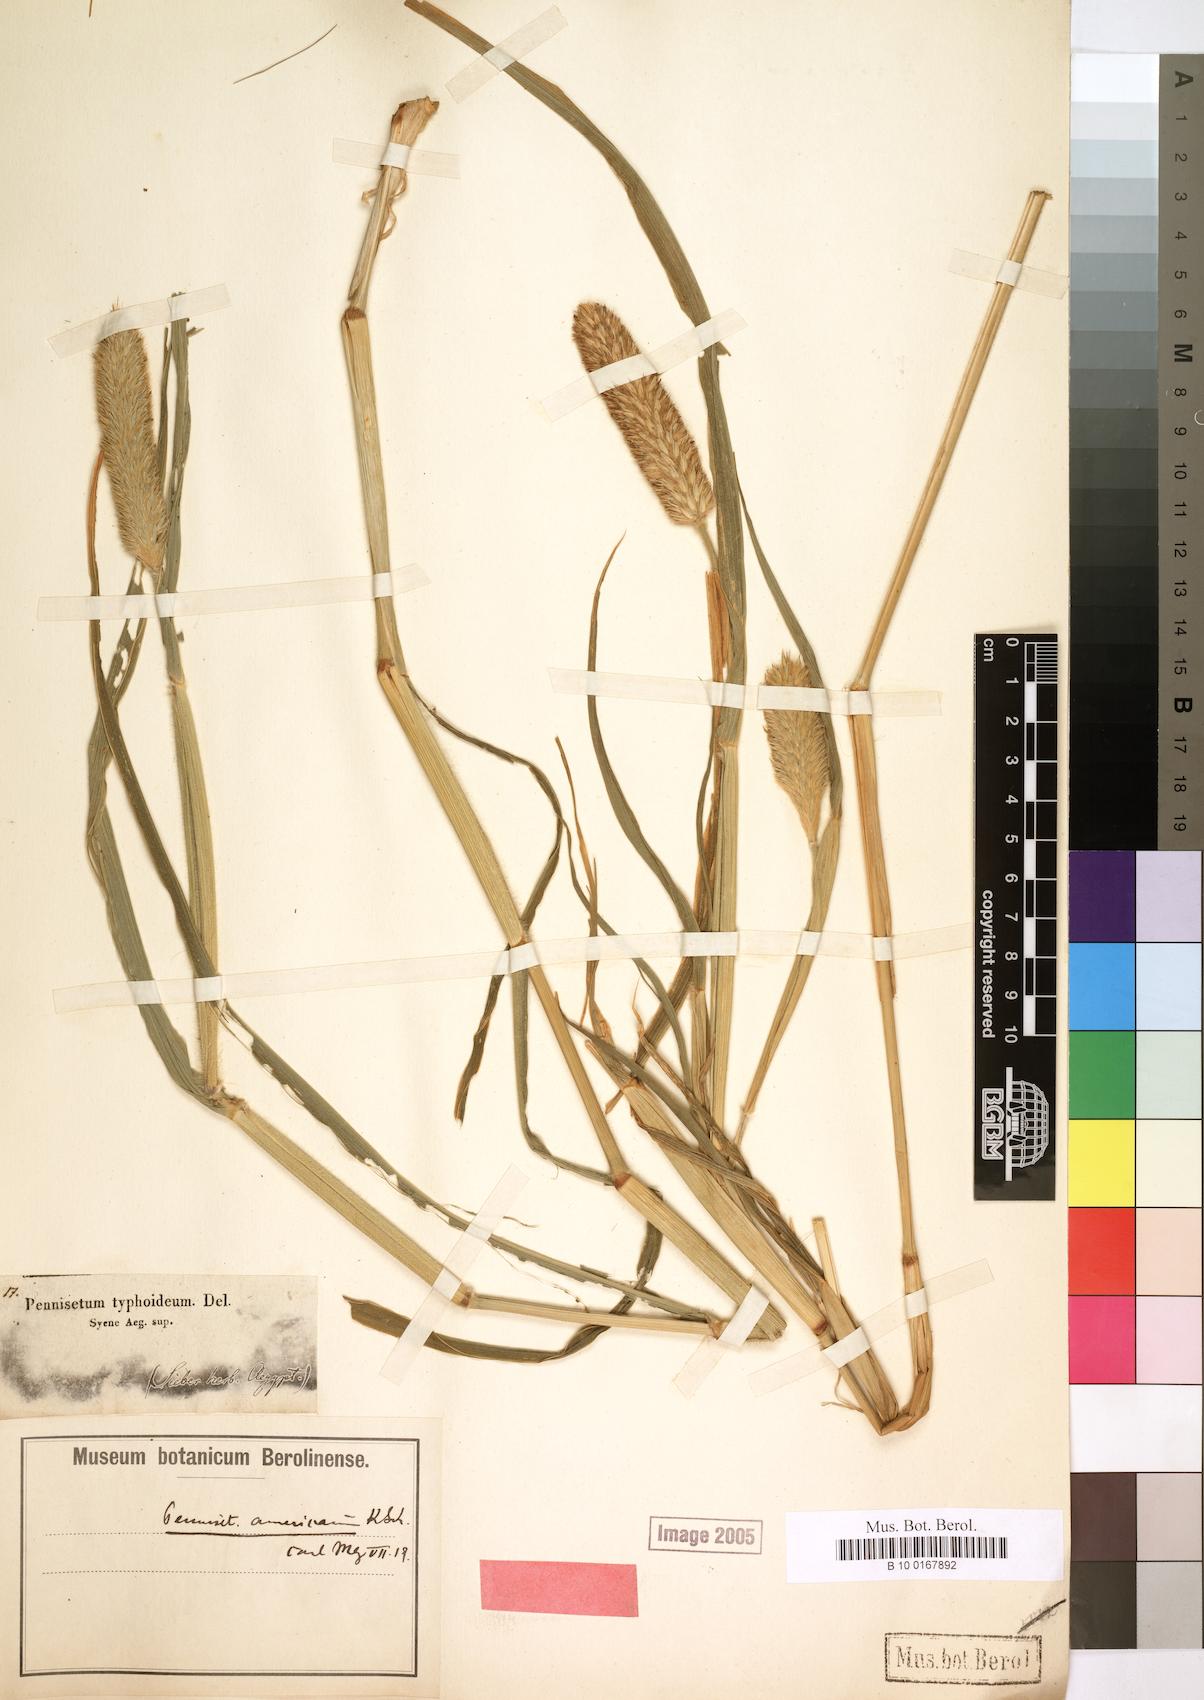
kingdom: Plantae
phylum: Tracheophyta
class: Liliopsida
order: Poales
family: Poaceae
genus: Cenchrus
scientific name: Cenchrus americanus
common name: Pearl millet
